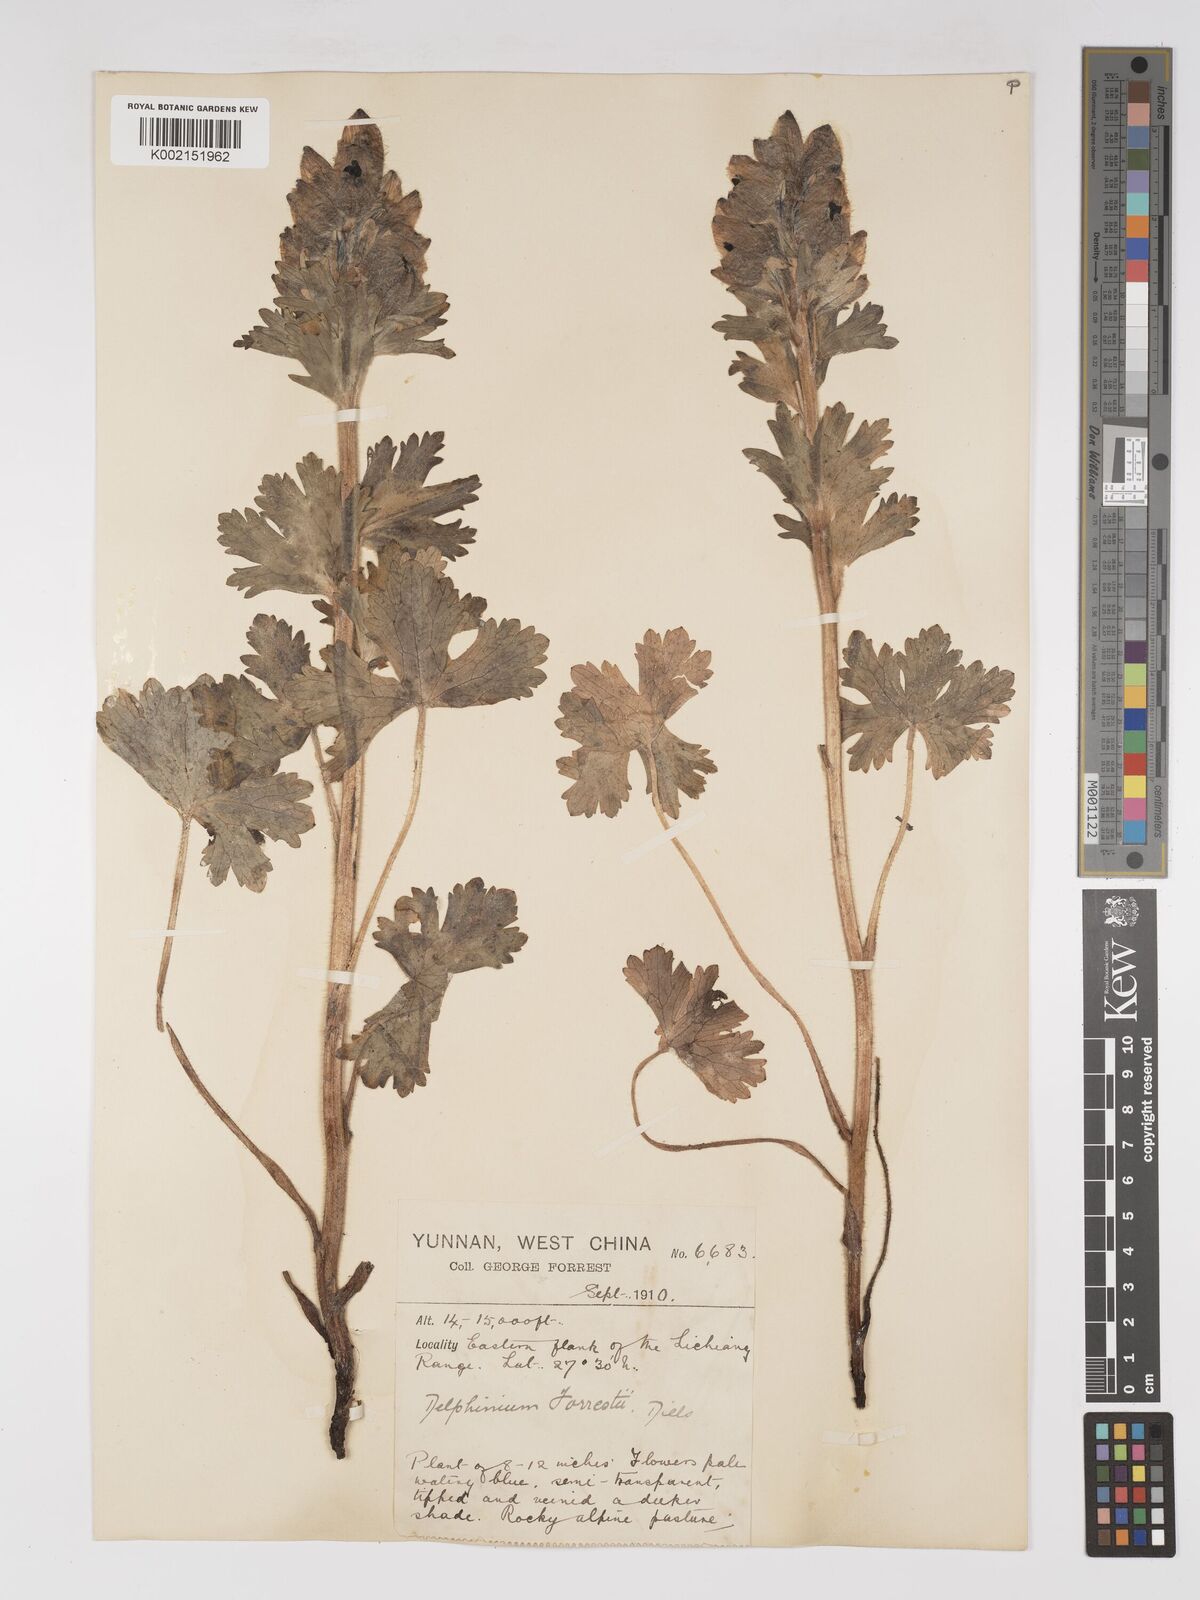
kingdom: Plantae
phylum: Tracheophyta
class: Magnoliopsida
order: Ranunculales
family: Ranunculaceae
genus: Delphinium
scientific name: Delphinium trichophorum
